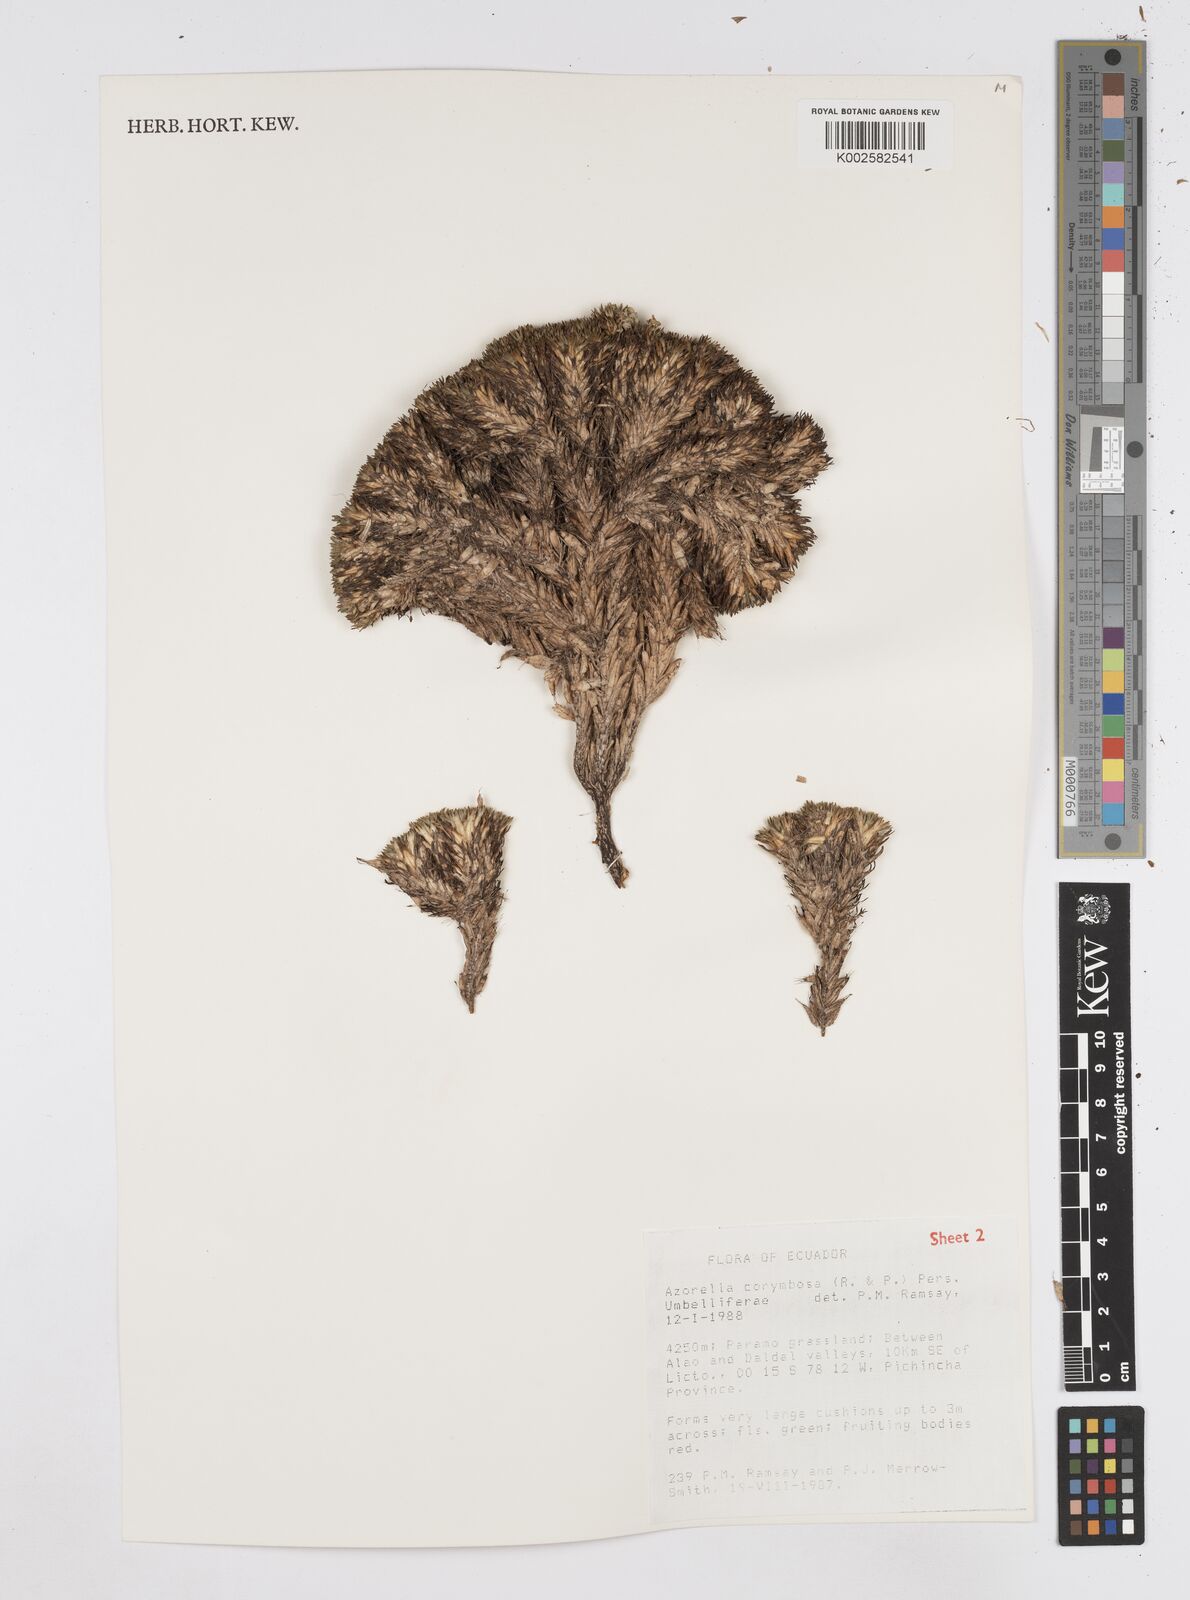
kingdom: Plantae
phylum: Tracheophyta
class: Magnoliopsida
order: Apiales
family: Apiaceae
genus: Azorella
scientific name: Azorella corymbosa
